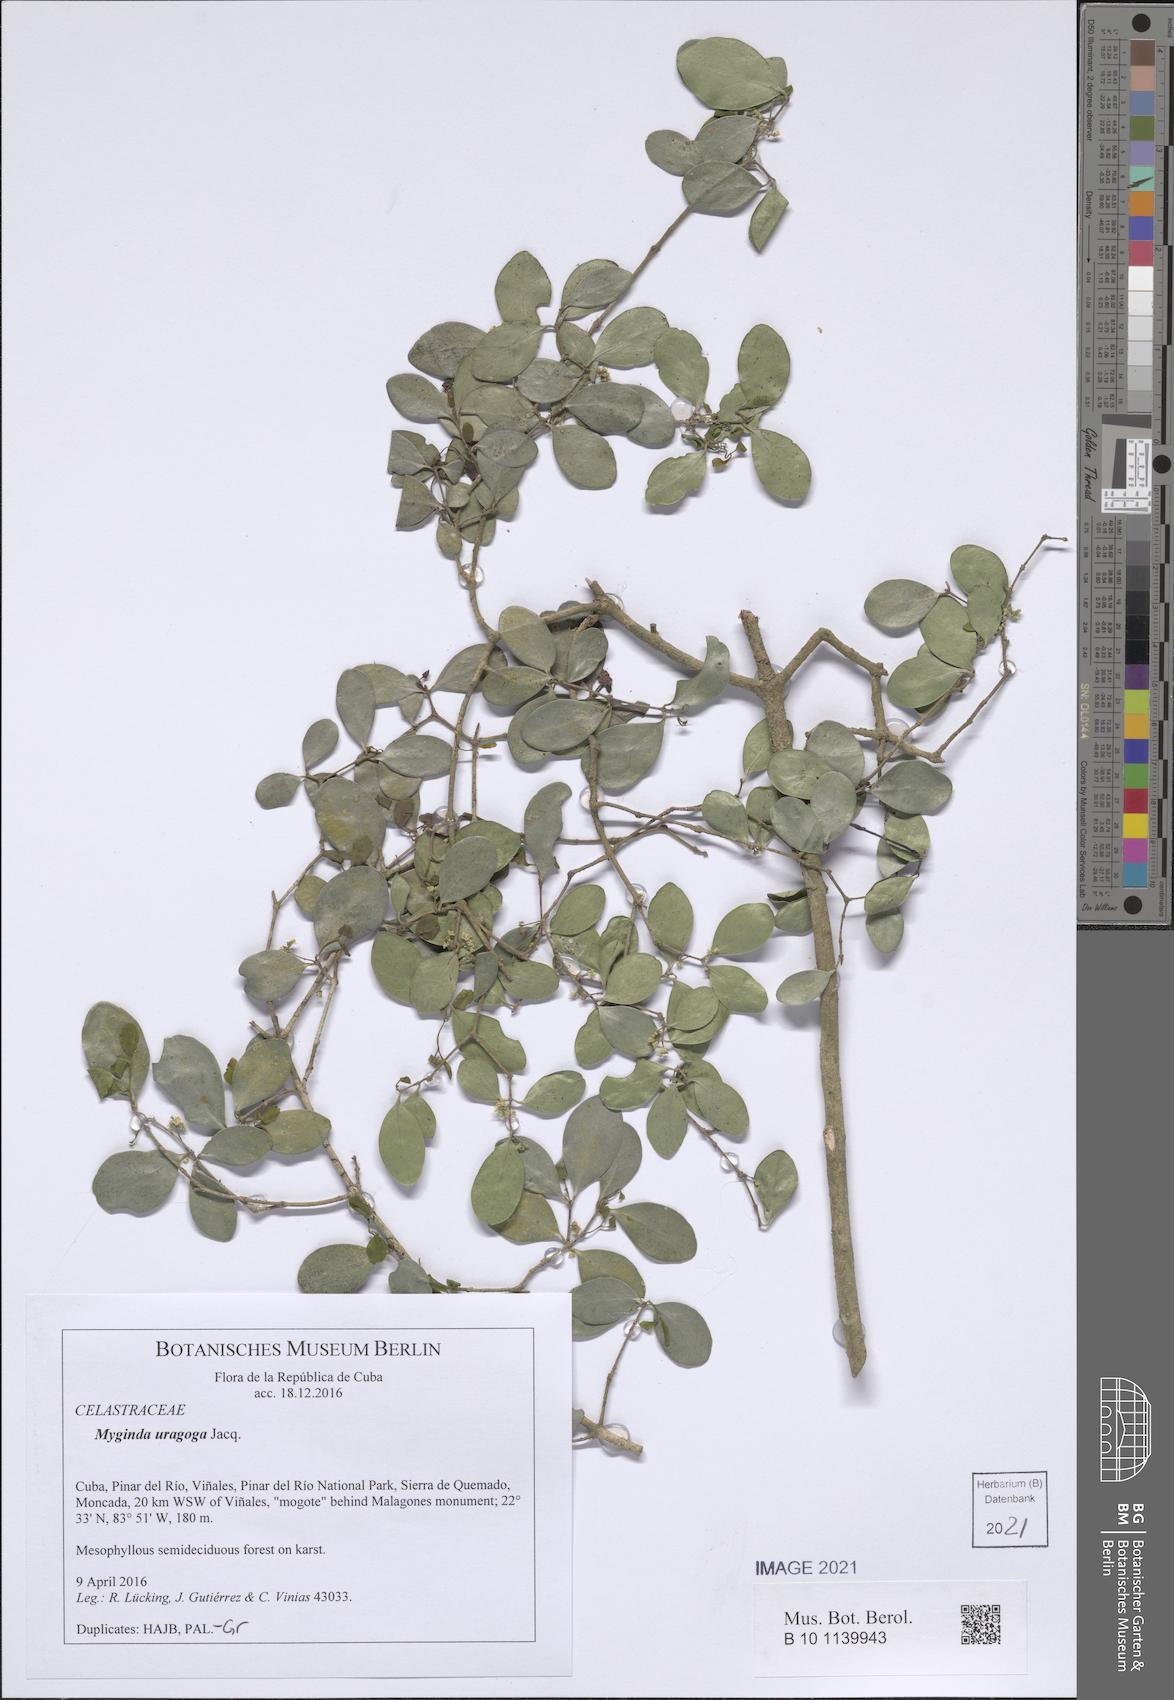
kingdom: Plantae
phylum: Tracheophyta
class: Magnoliopsida
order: Celastrales
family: Celastraceae
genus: Gyminda
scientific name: Gyminda latifolia
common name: False boxwood
